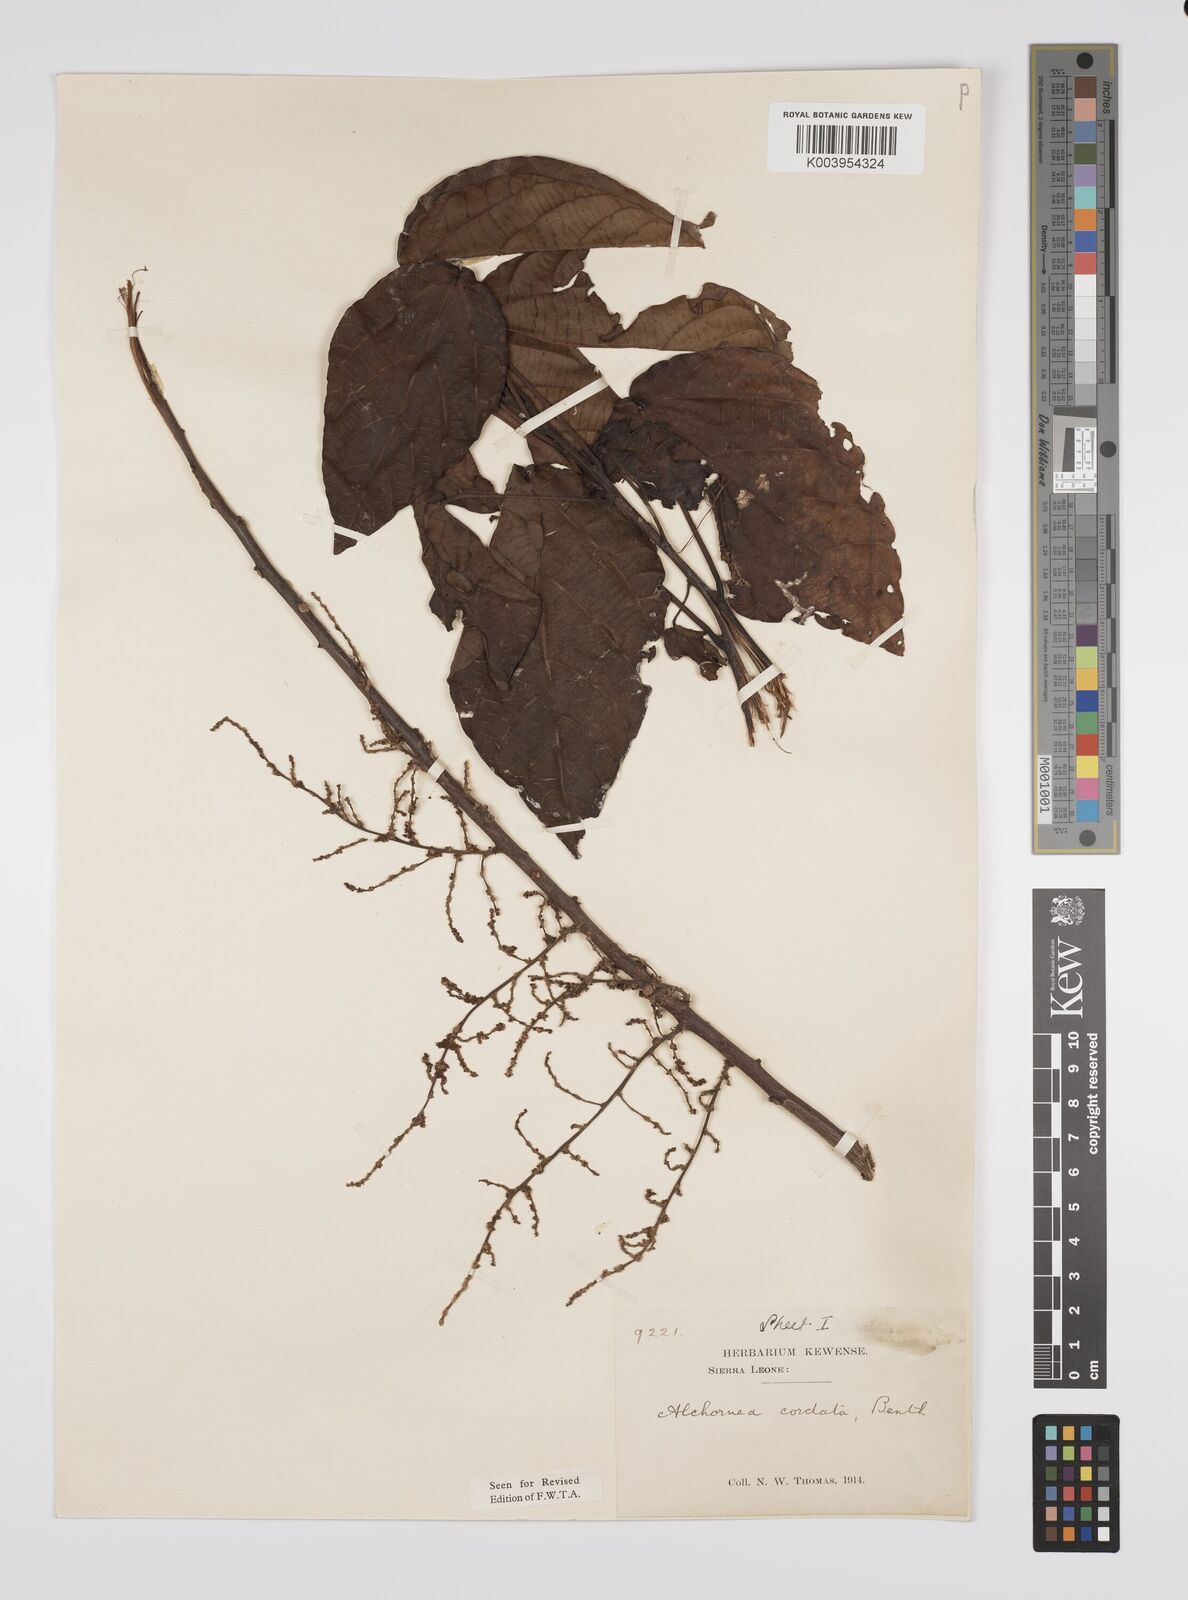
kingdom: Plantae
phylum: Tracheophyta
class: Magnoliopsida
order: Malpighiales
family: Euphorbiaceae
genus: Alchornea
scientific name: Alchornea cordifolia
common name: Christmasbush
